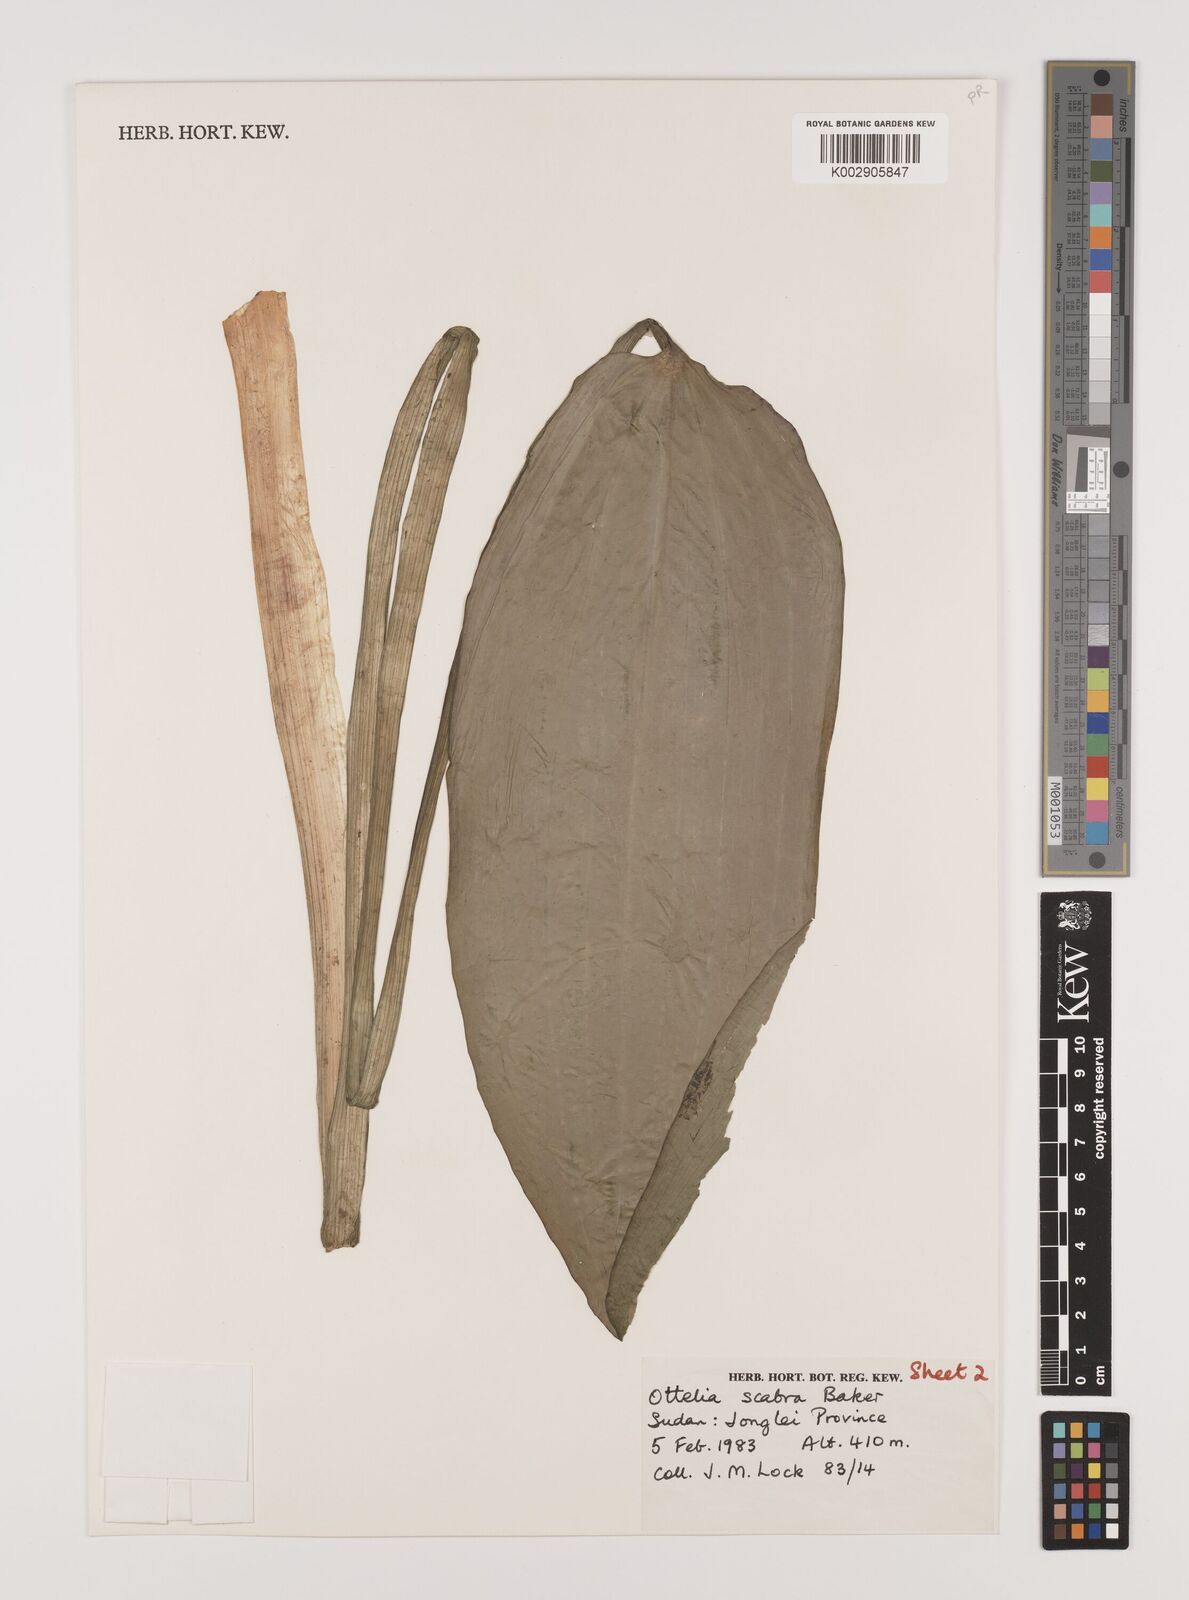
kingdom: Plantae
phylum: Tracheophyta
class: Liliopsida
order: Alismatales
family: Hydrocharitaceae
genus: Ottelia
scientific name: Ottelia scabra
